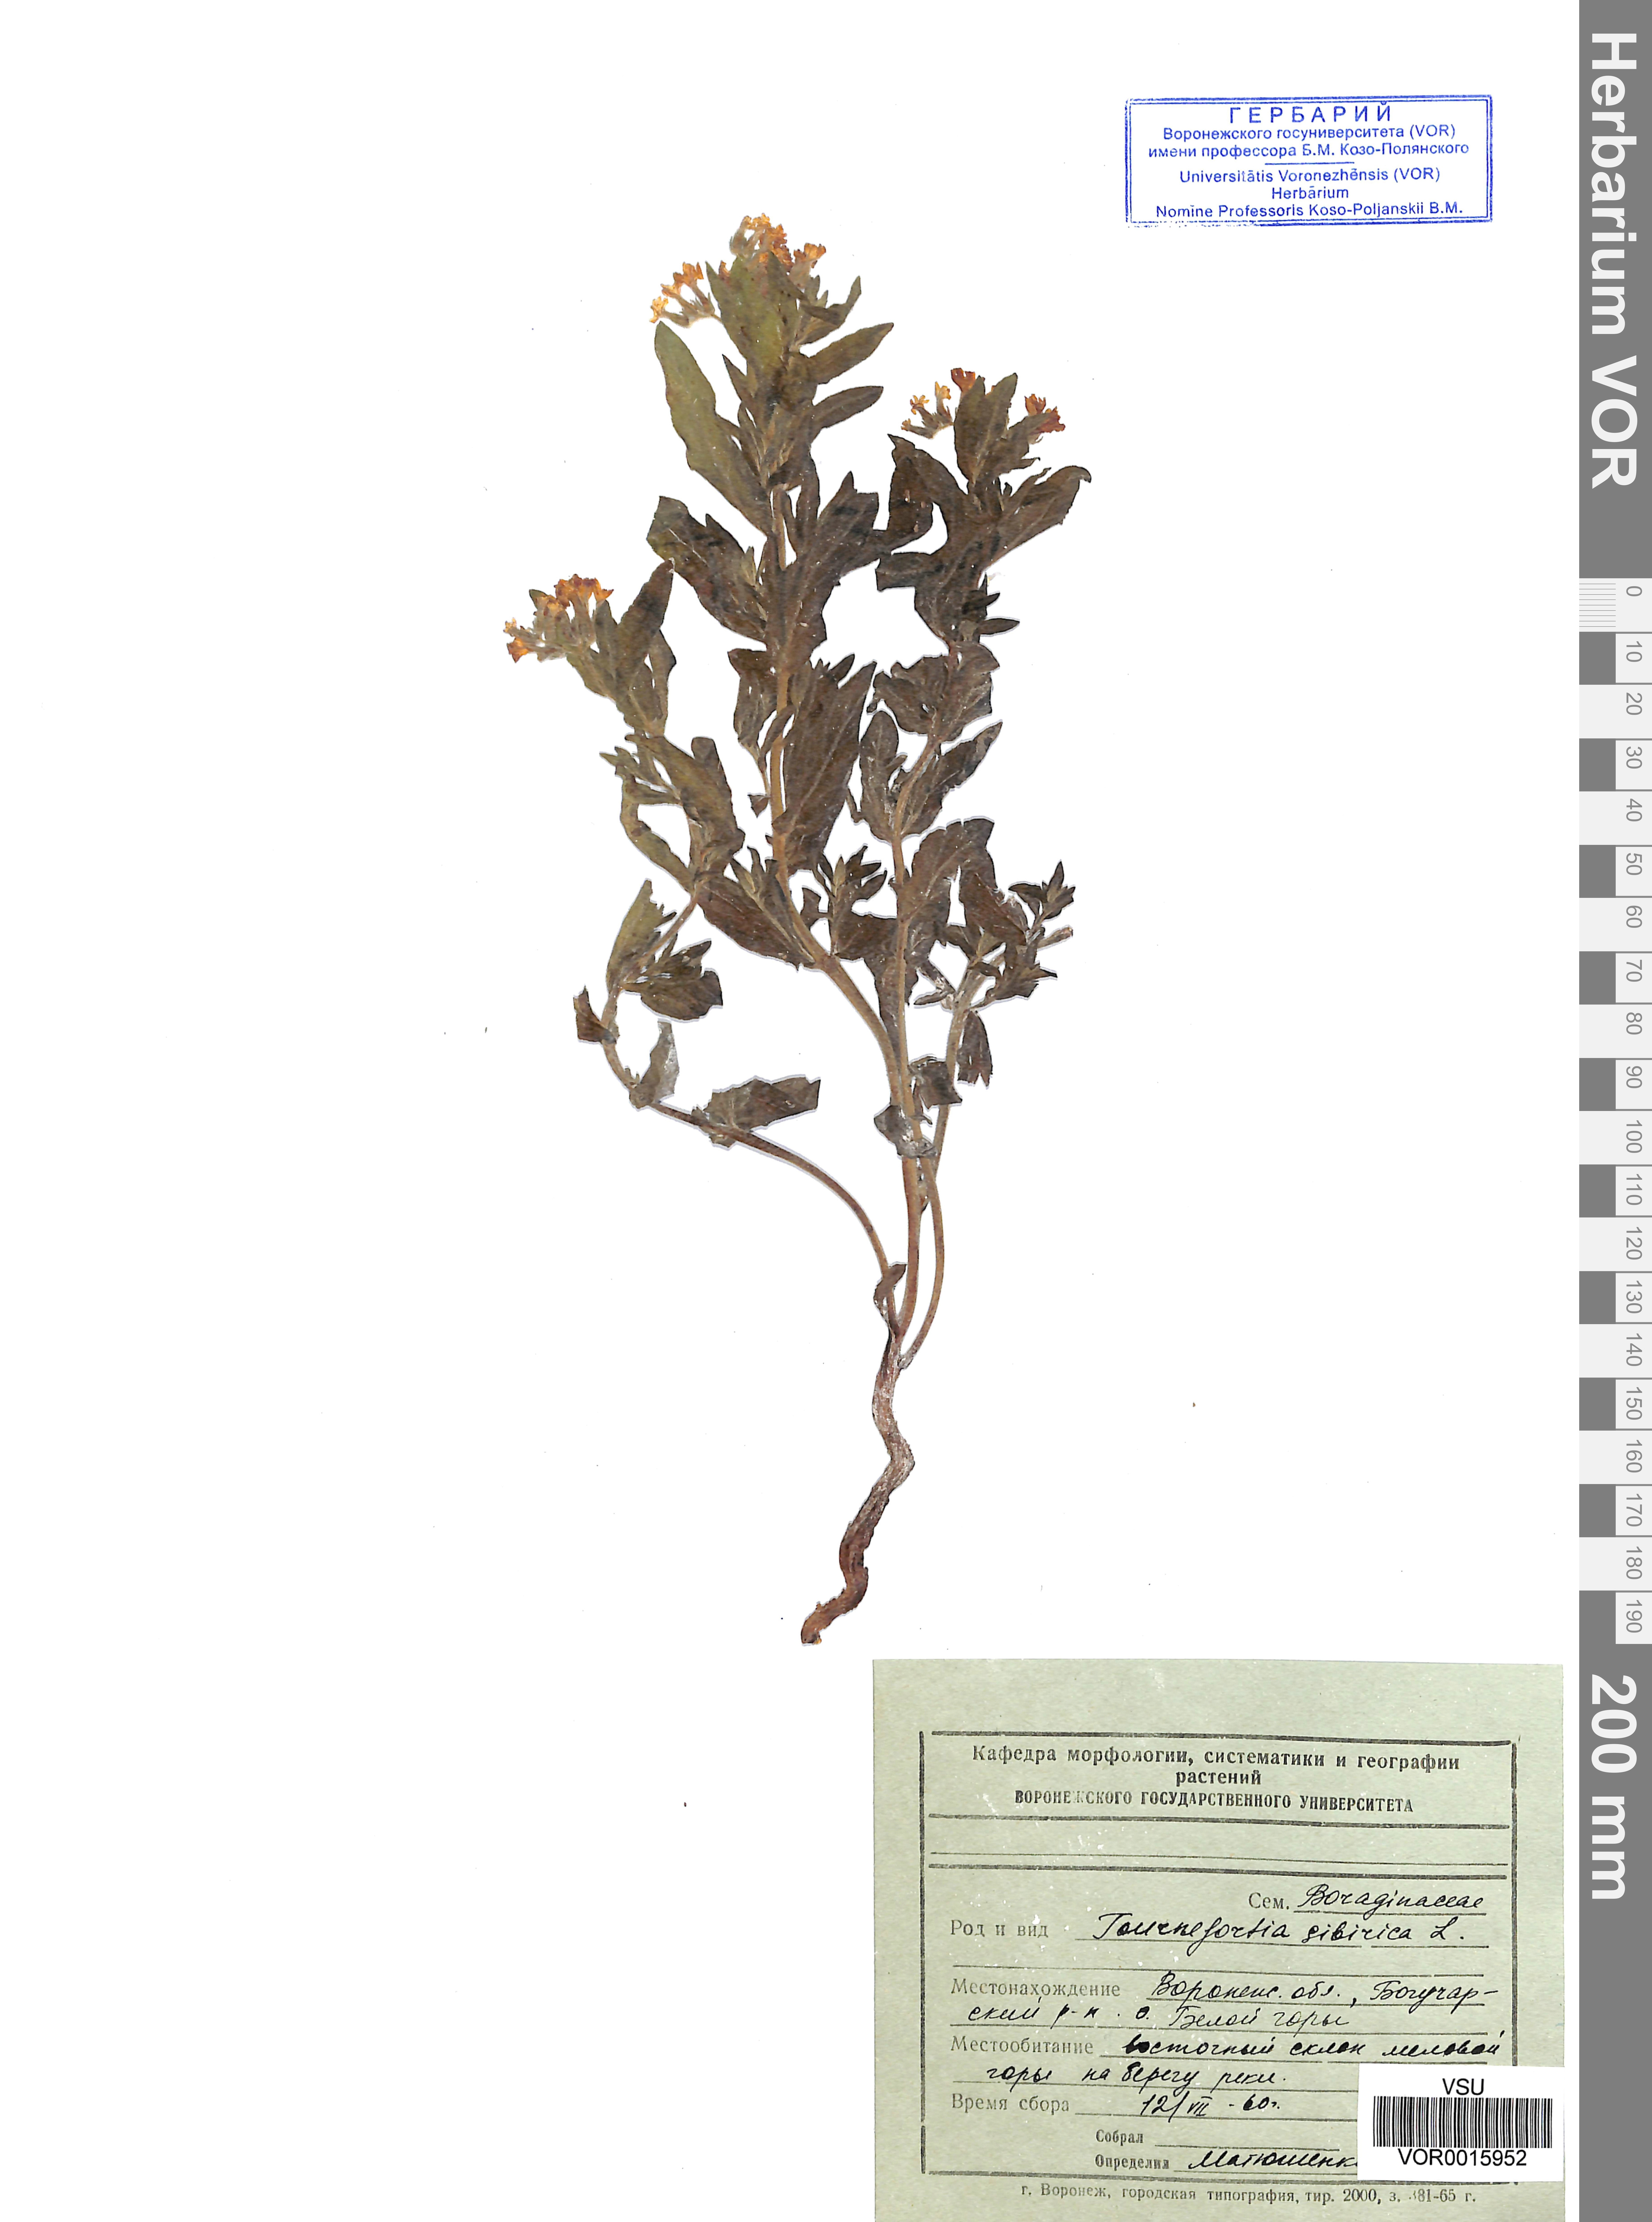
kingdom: Plantae
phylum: Tracheophyta
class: Magnoliopsida
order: Boraginales
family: Heliotropiaceae
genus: Tournefortia
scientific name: Tournefortia sibirica
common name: Siberian sea rosemary
